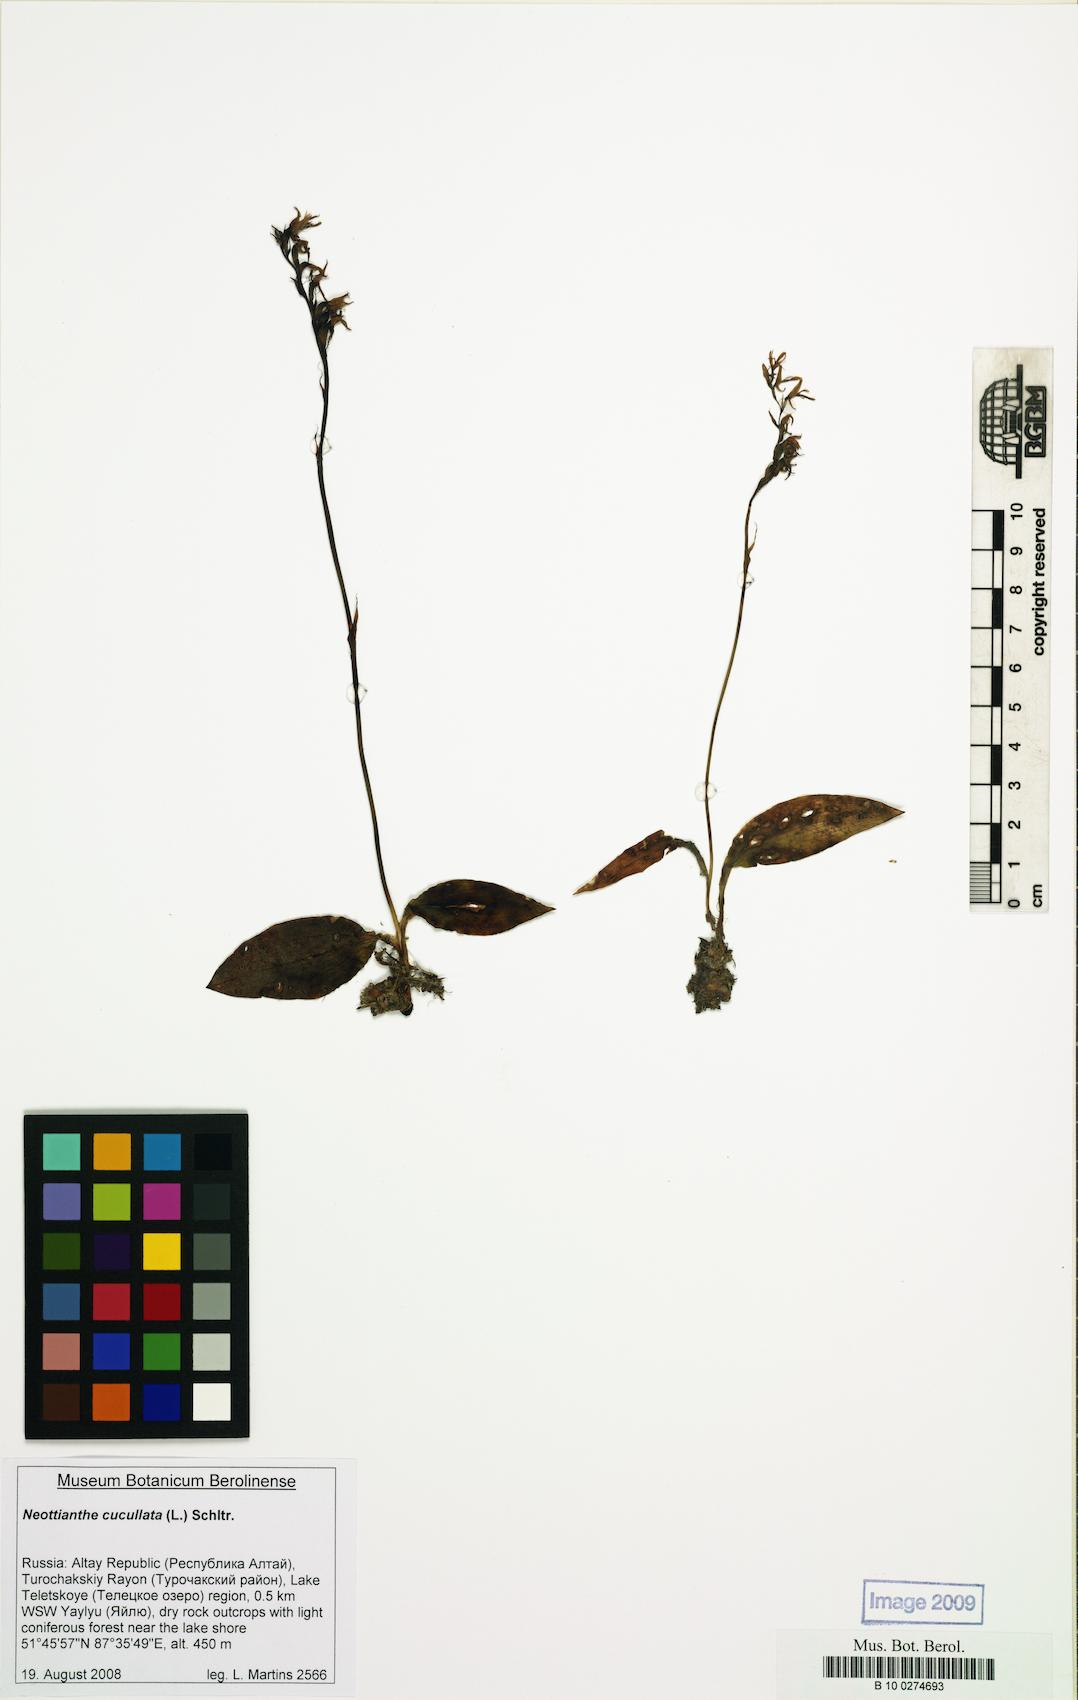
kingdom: Plantae
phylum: Tracheophyta
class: Liliopsida
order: Asparagales
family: Orchidaceae
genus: Hemipilia
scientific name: Hemipilia cucullata
